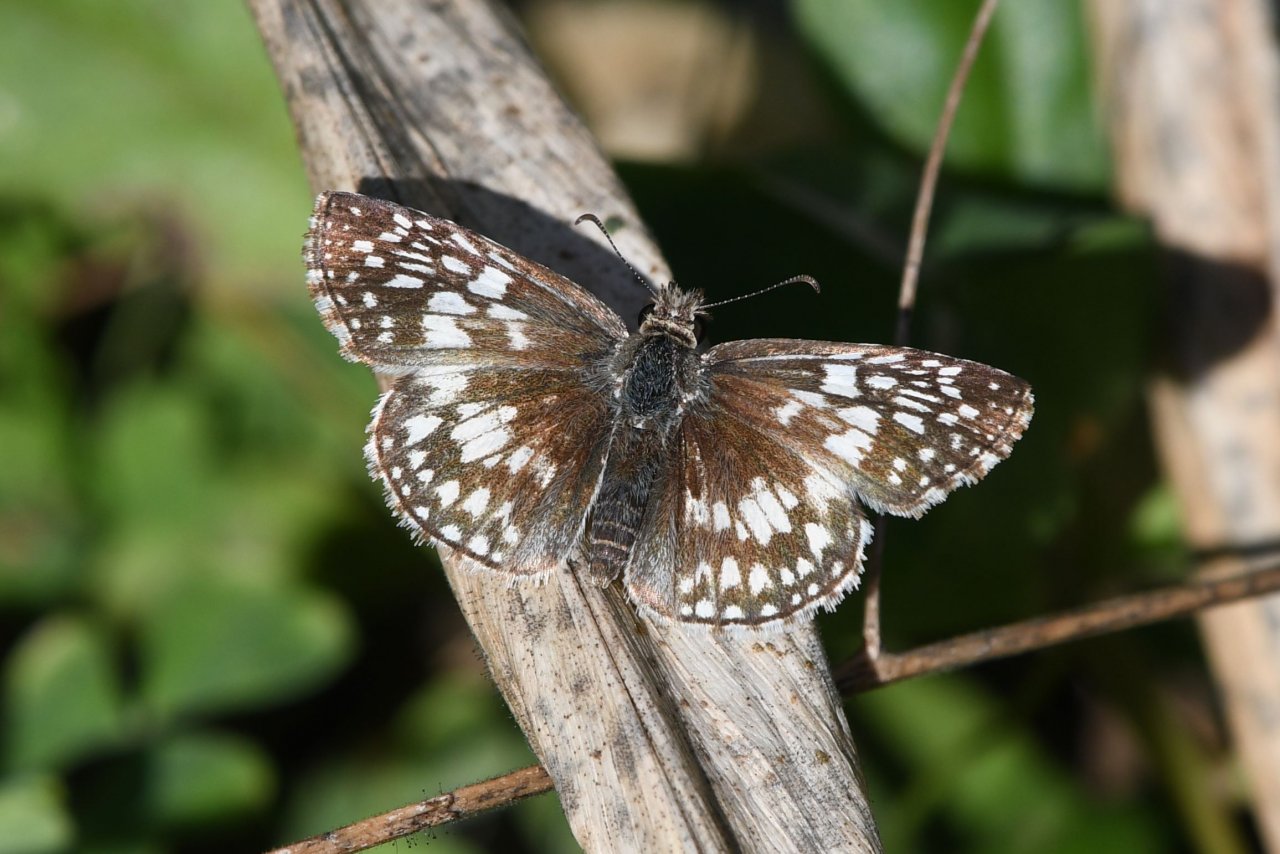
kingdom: Animalia
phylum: Arthropoda
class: Insecta
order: Lepidoptera
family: Hesperiidae
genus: Pyrgus
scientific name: Pyrgus oileus
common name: Tropical Checkered-Skipper
